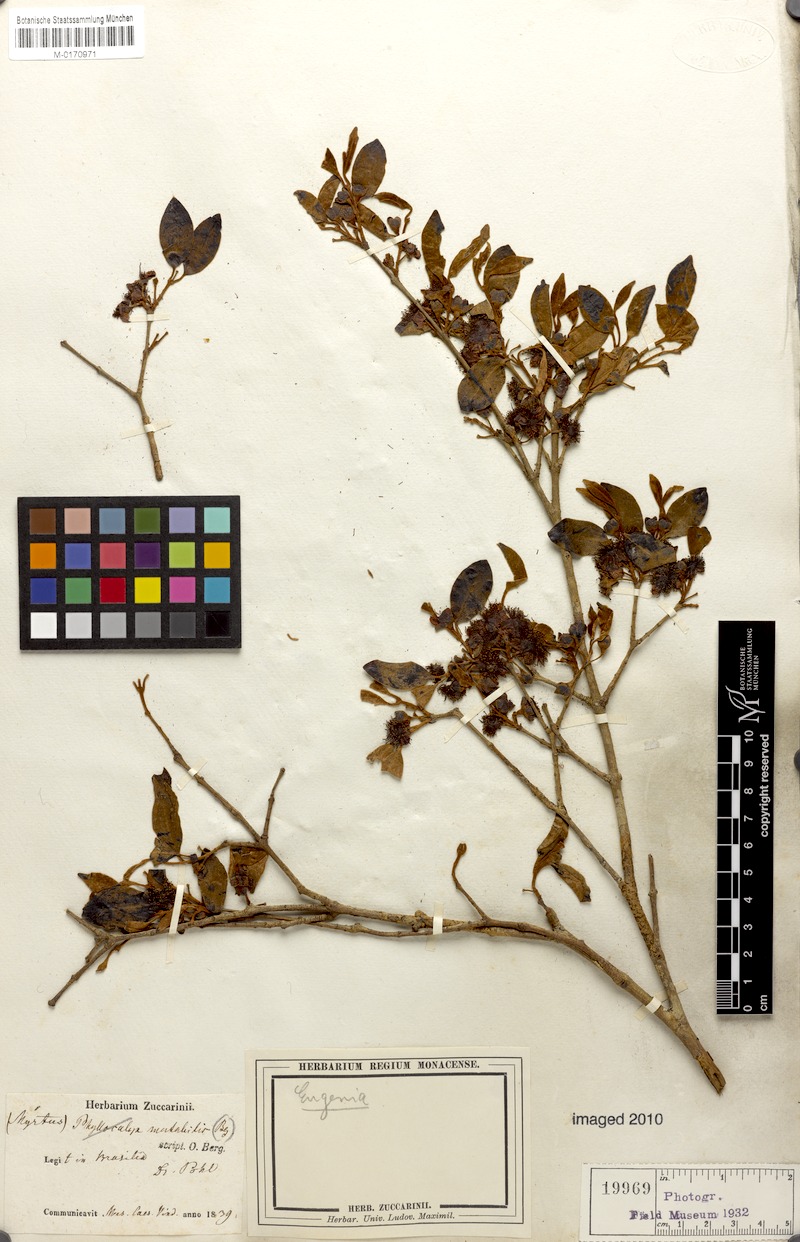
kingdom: Plantae
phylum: Tracheophyta
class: Magnoliopsida
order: Myrtales
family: Myrtaceae
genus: Eugenia
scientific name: Eugenia longipetiolata
